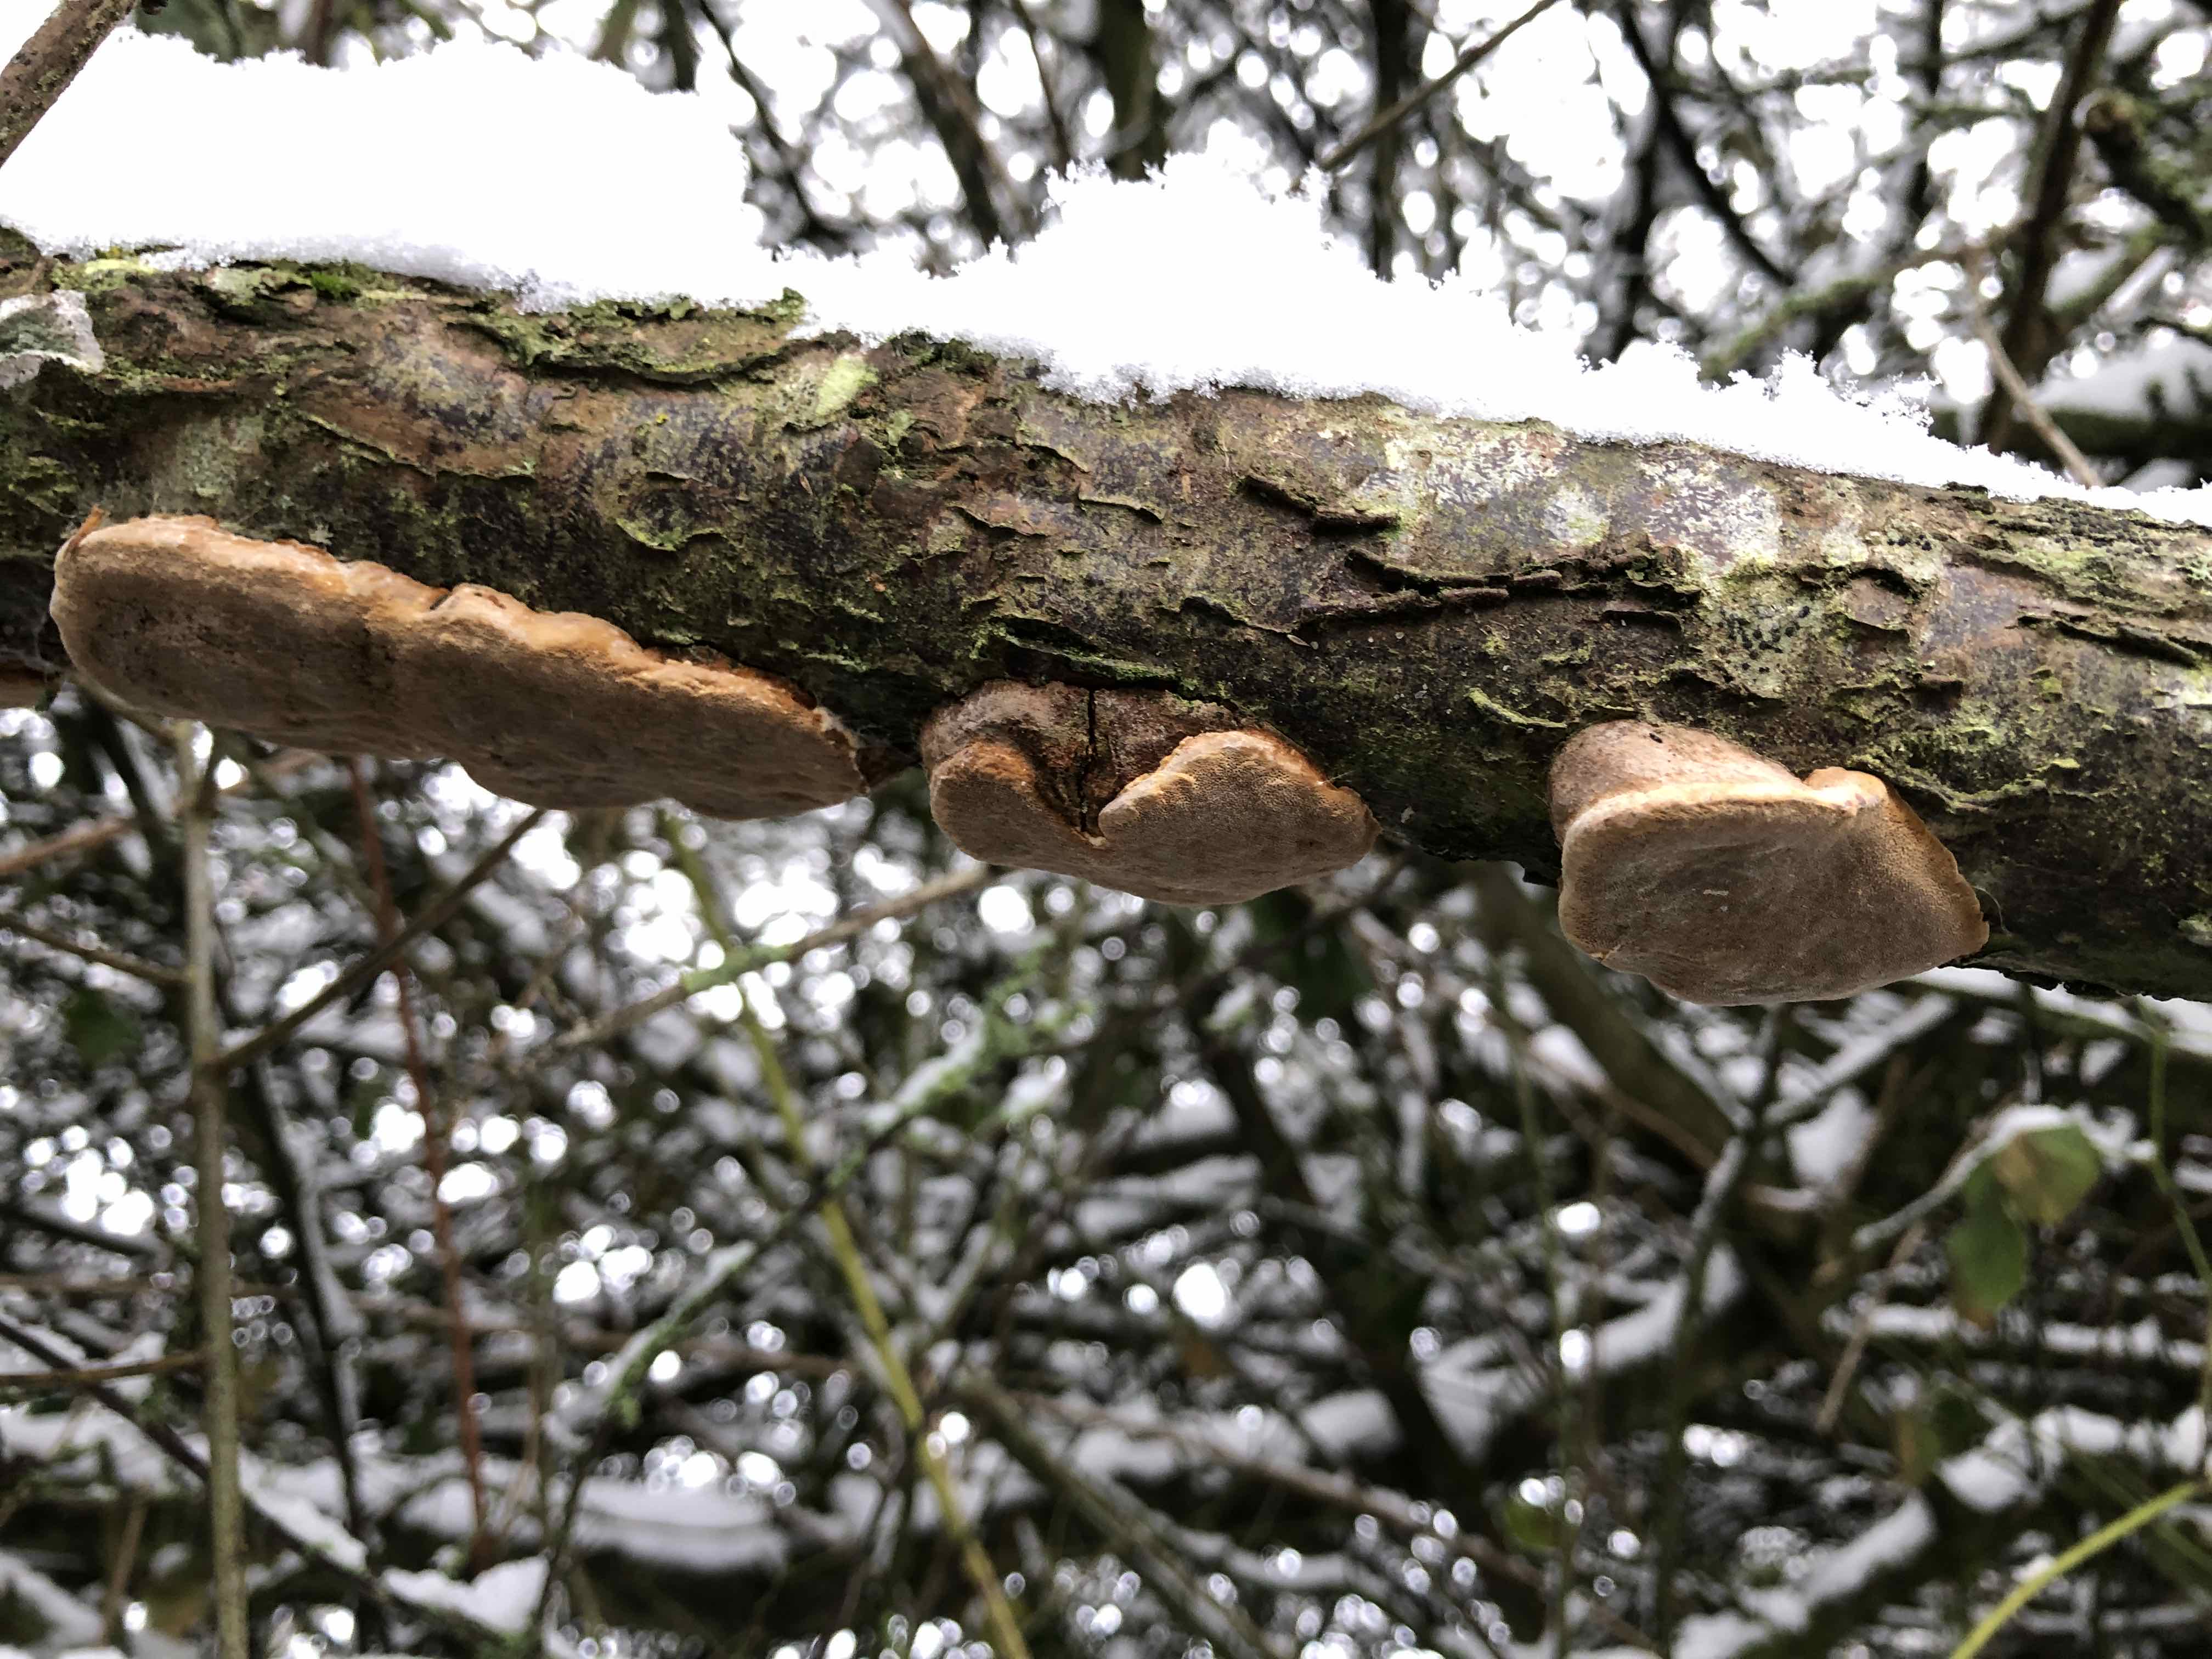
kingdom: Fungi
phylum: Basidiomycota
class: Agaricomycetes
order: Hymenochaetales
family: Hymenochaetaceae
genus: Phellinus
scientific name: Phellinus pomaceus
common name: blomme-ildporesvamp
